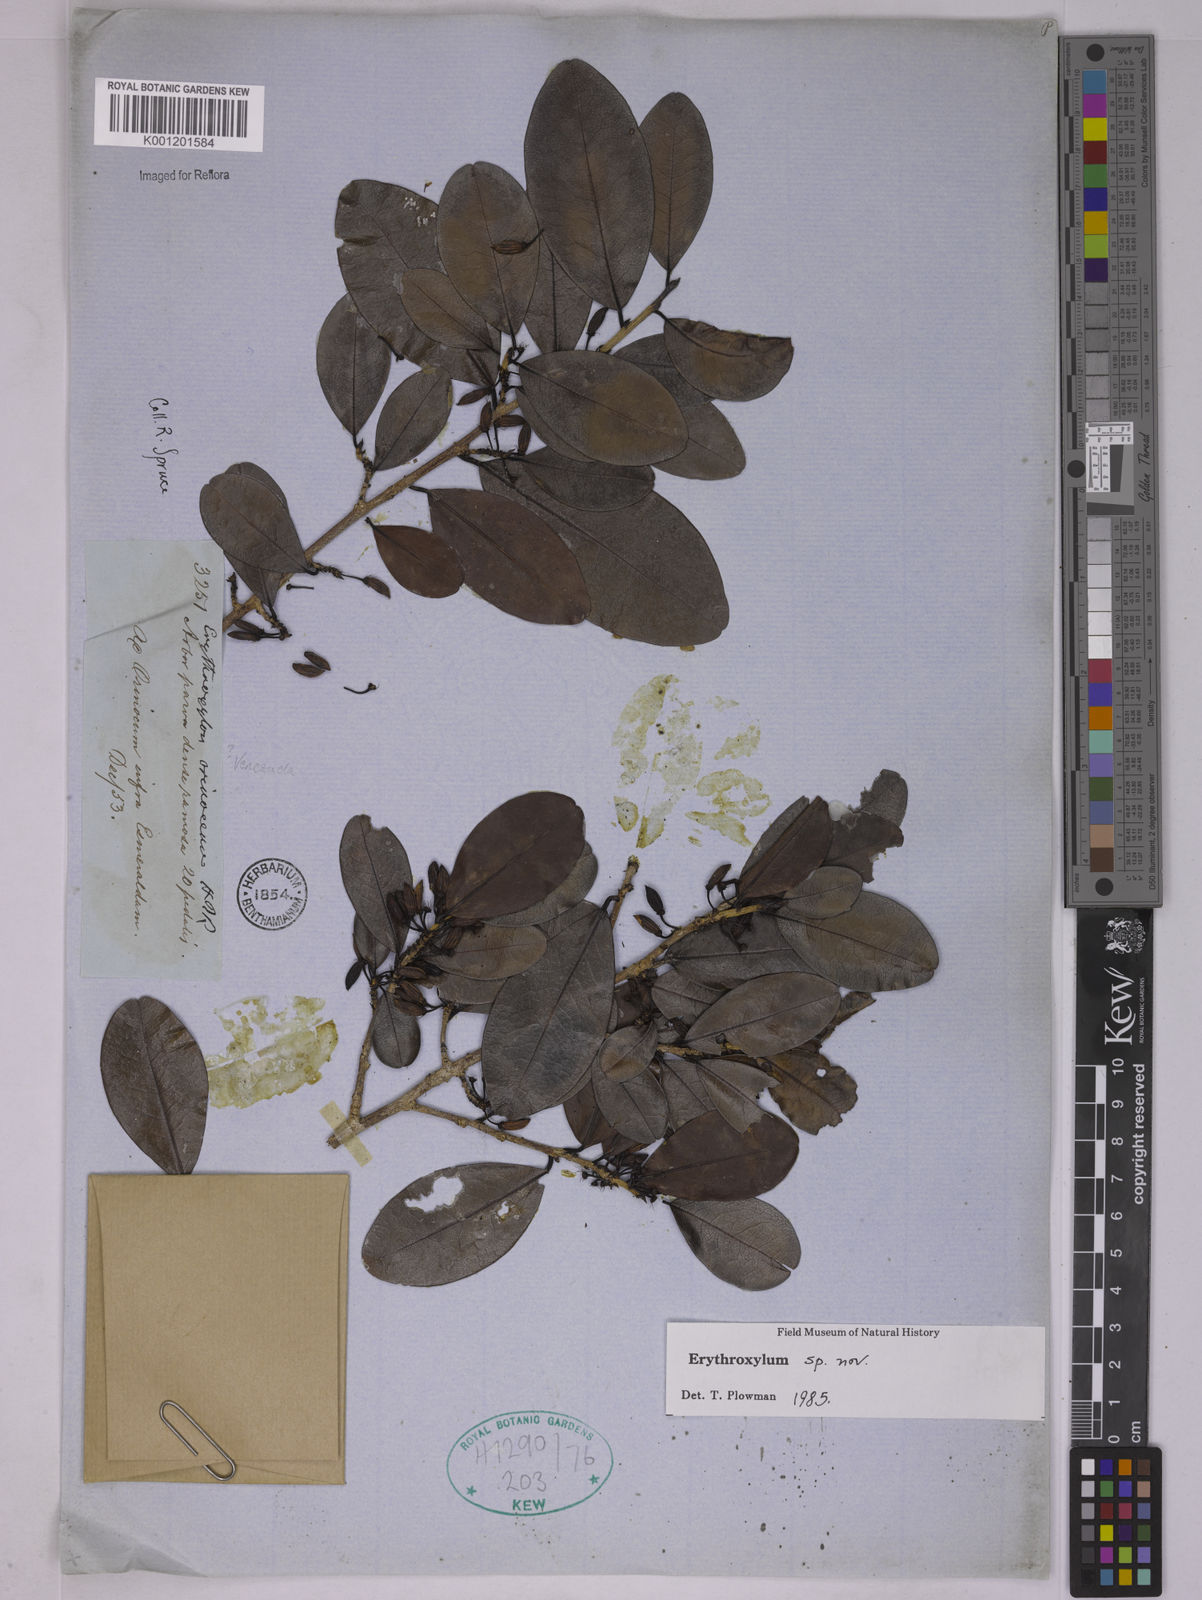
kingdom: Plantae
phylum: Tracheophyta
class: Magnoliopsida
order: Malpighiales
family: Erythroxylaceae
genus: Erythroxylum
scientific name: Erythroxylum
